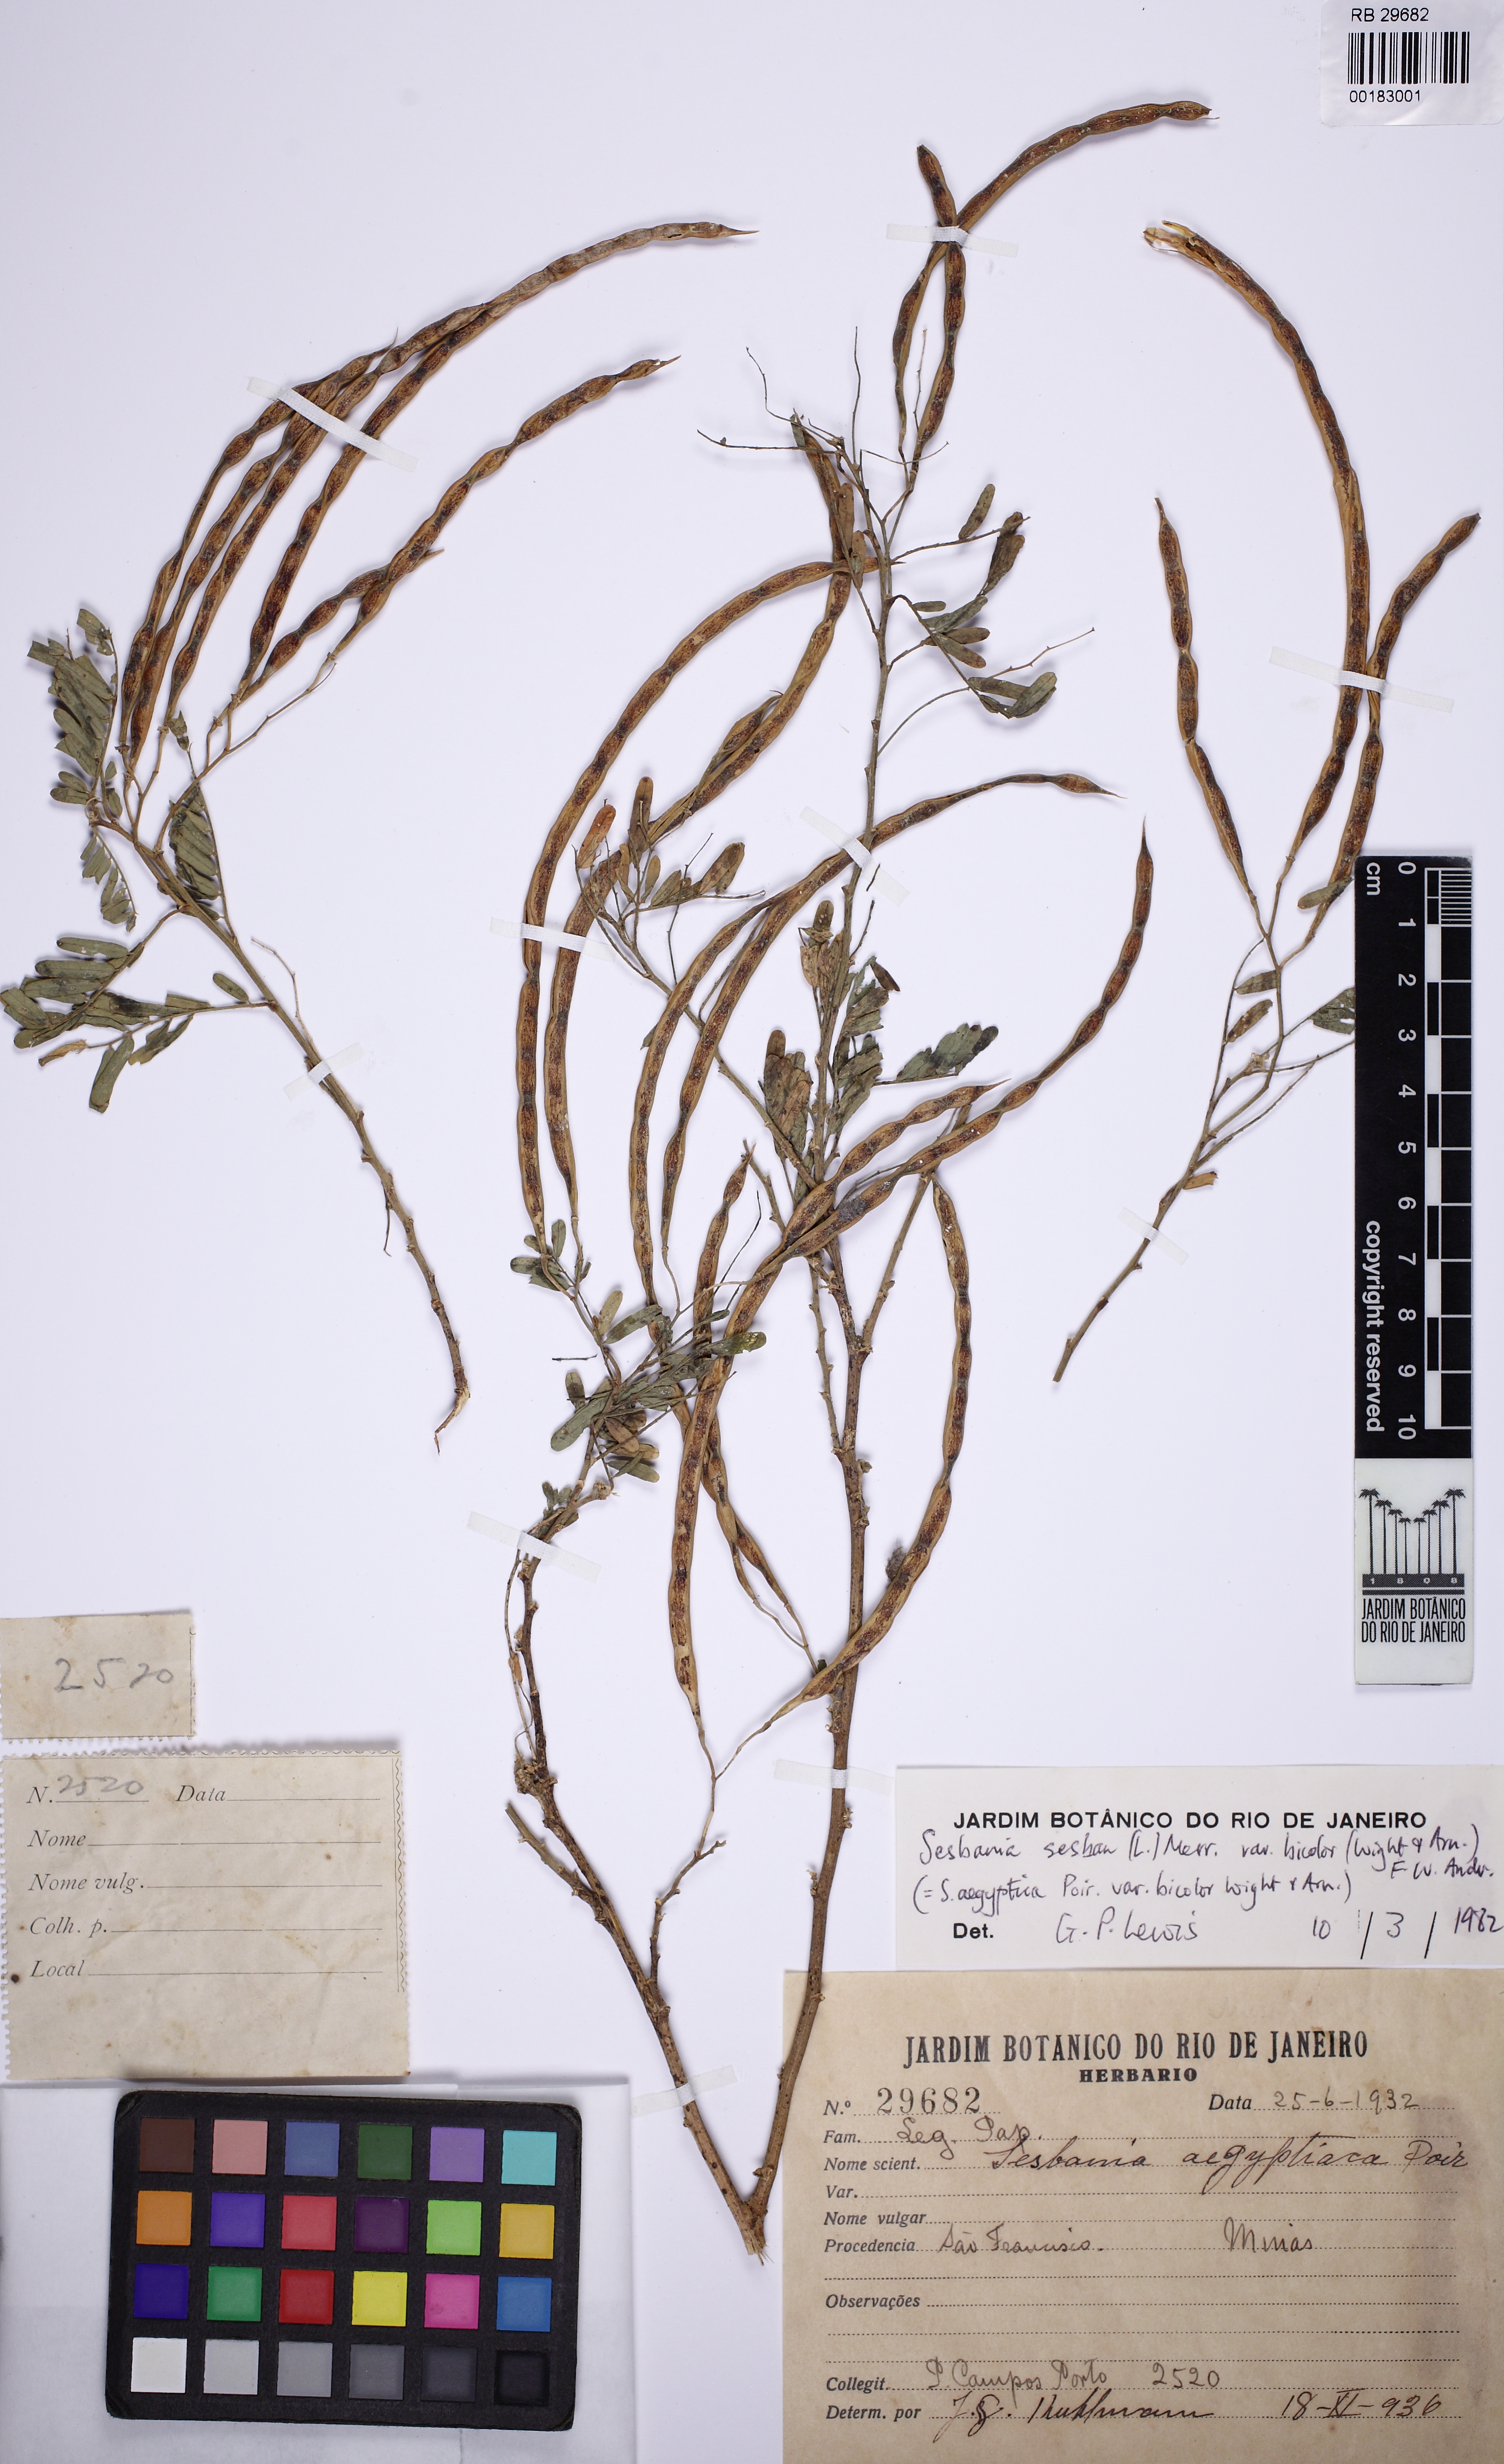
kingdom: Plantae
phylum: Tracheophyta
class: Magnoliopsida
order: Fabales
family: Fabaceae
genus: Sesbania
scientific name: Sesbania sesban
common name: Egyptian sesban
